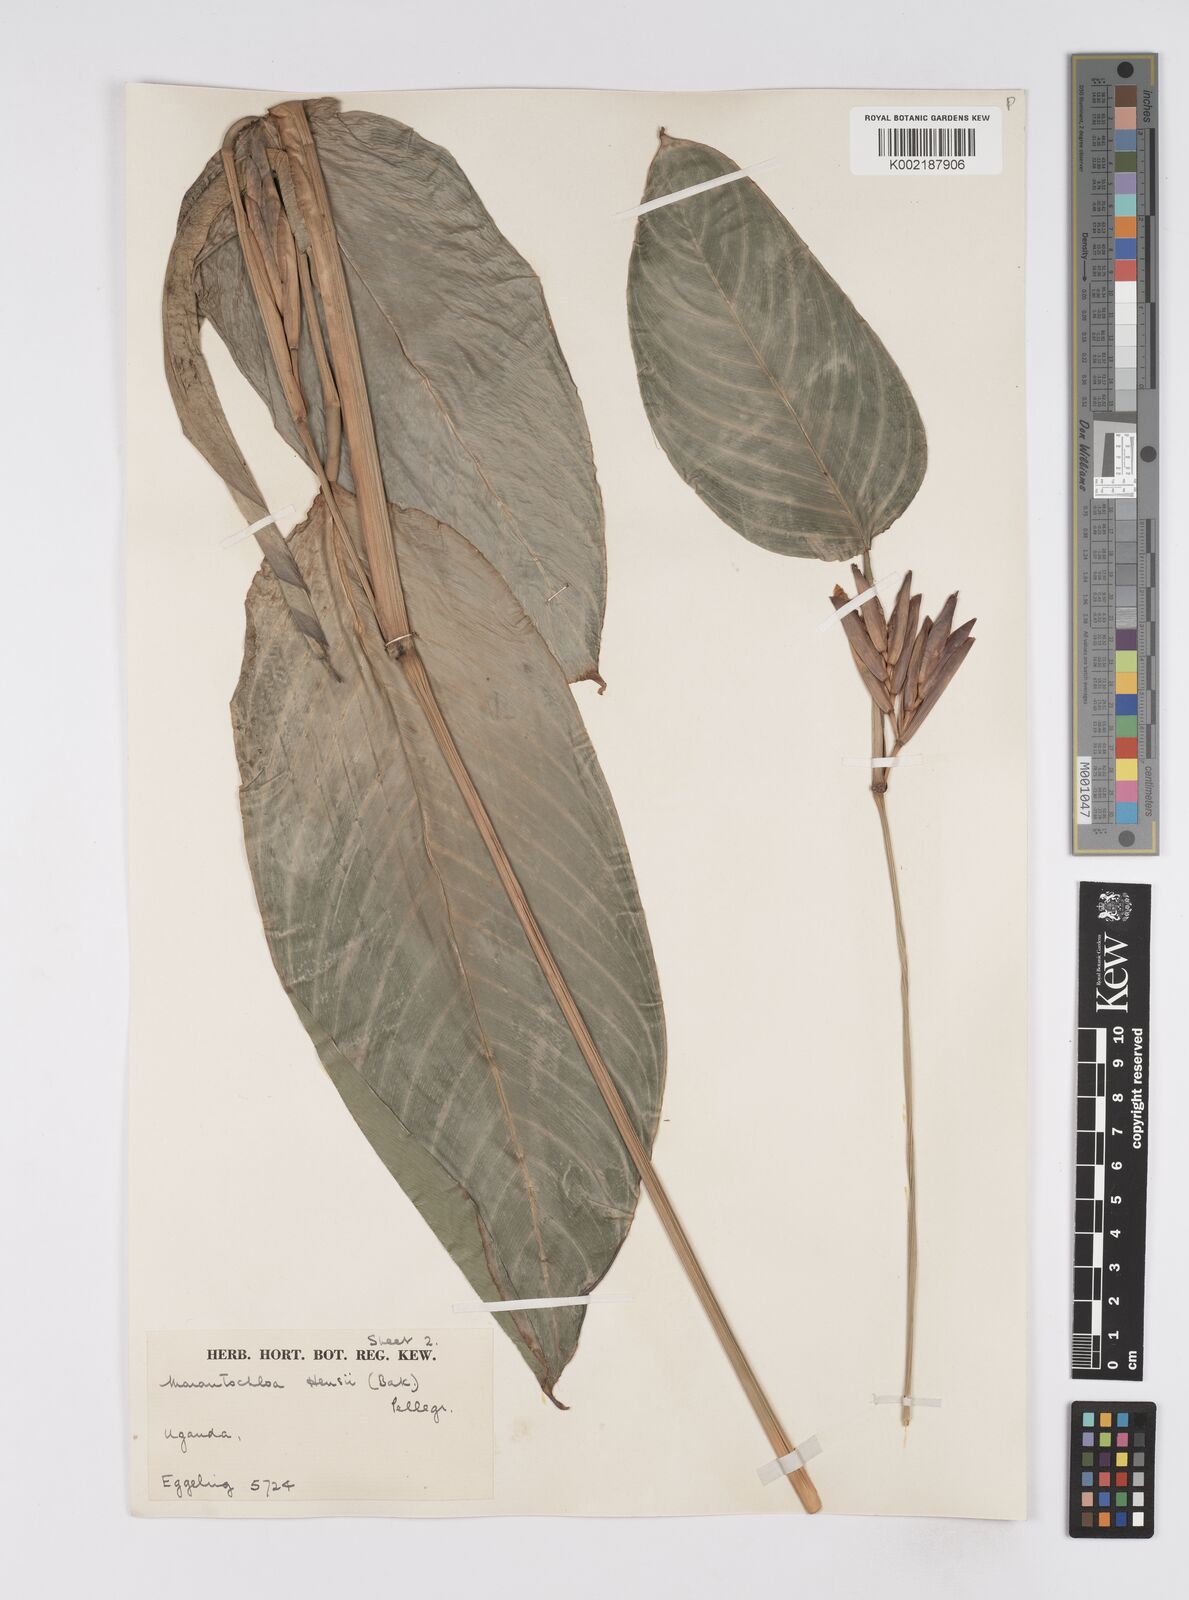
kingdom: Plantae
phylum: Tracheophyta
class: Liliopsida
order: Zingiberales
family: Marantaceae
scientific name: Marantaceae
